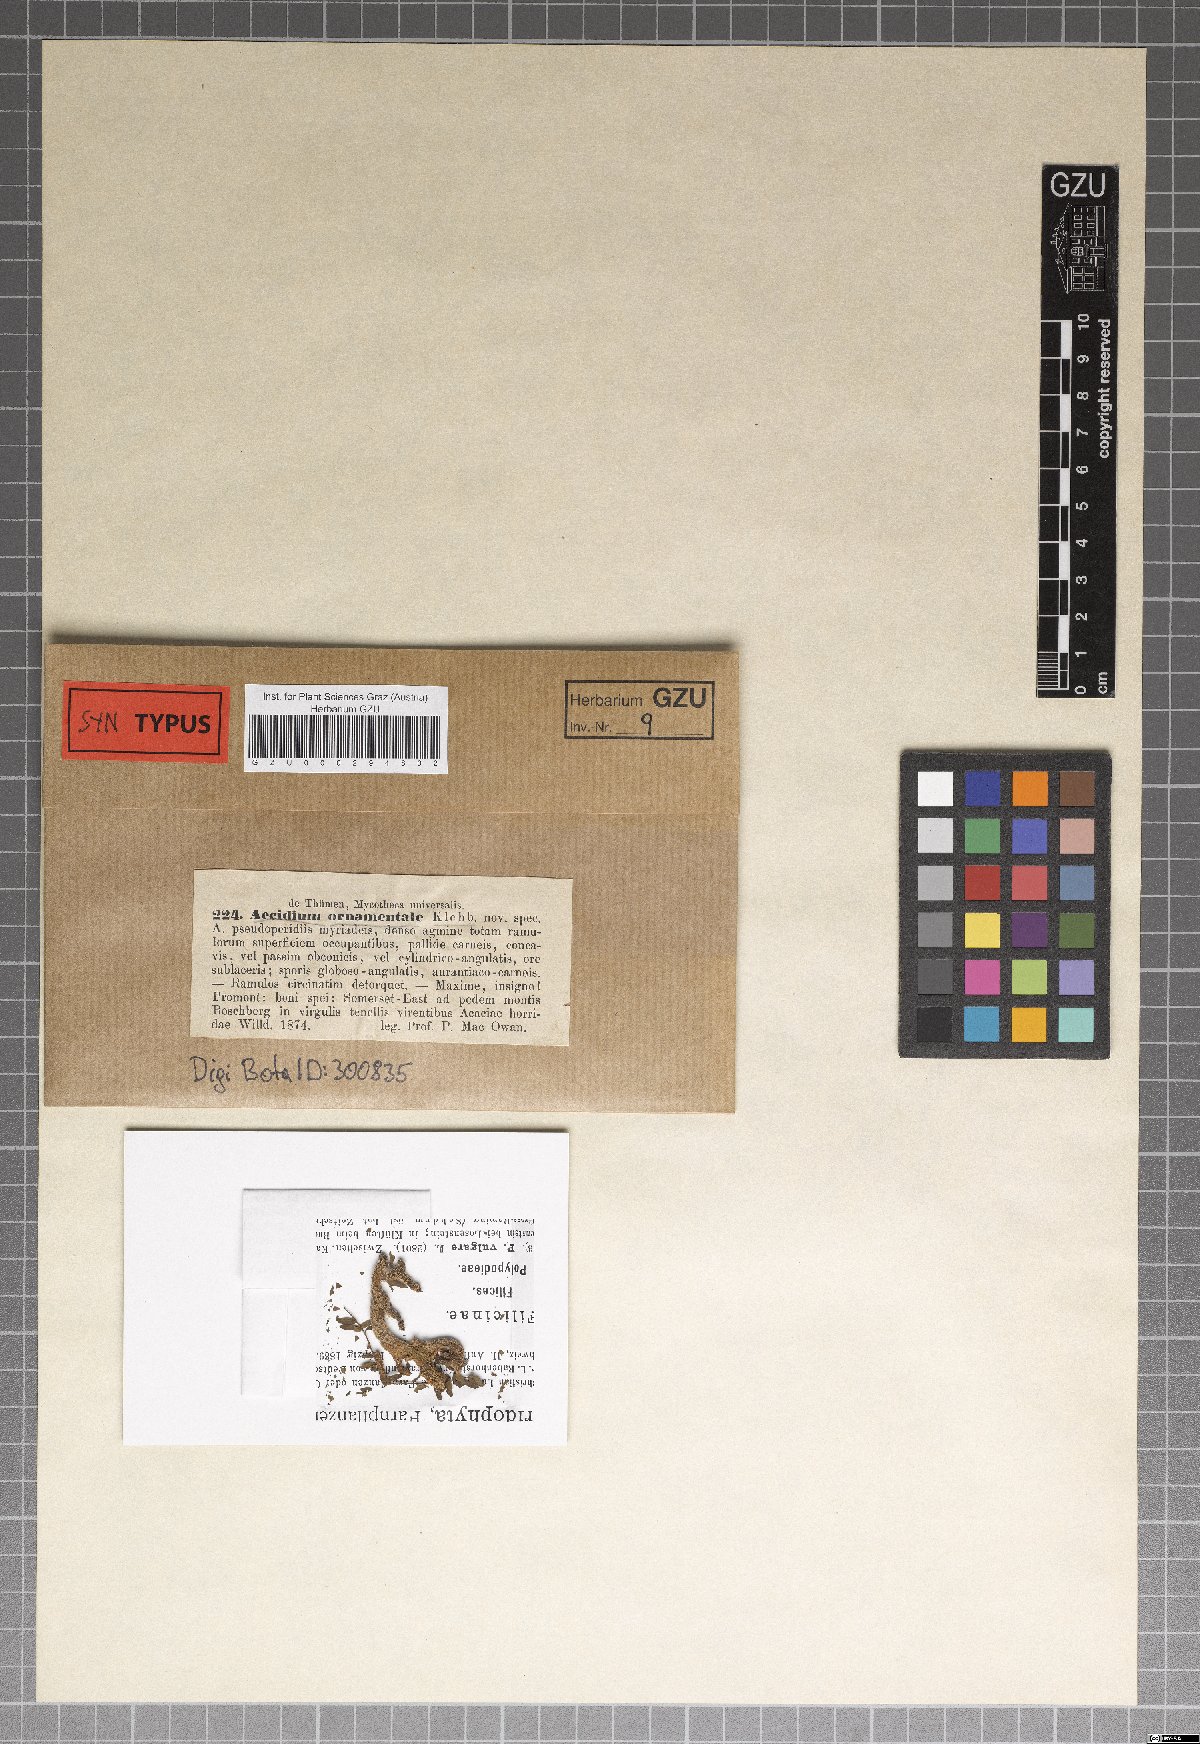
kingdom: Fungi
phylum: Basidiomycota
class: Pucciniomycetes
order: Pucciniales
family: Raveneliaceae
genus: Ravenelia
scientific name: Ravenelia ornamentalis
